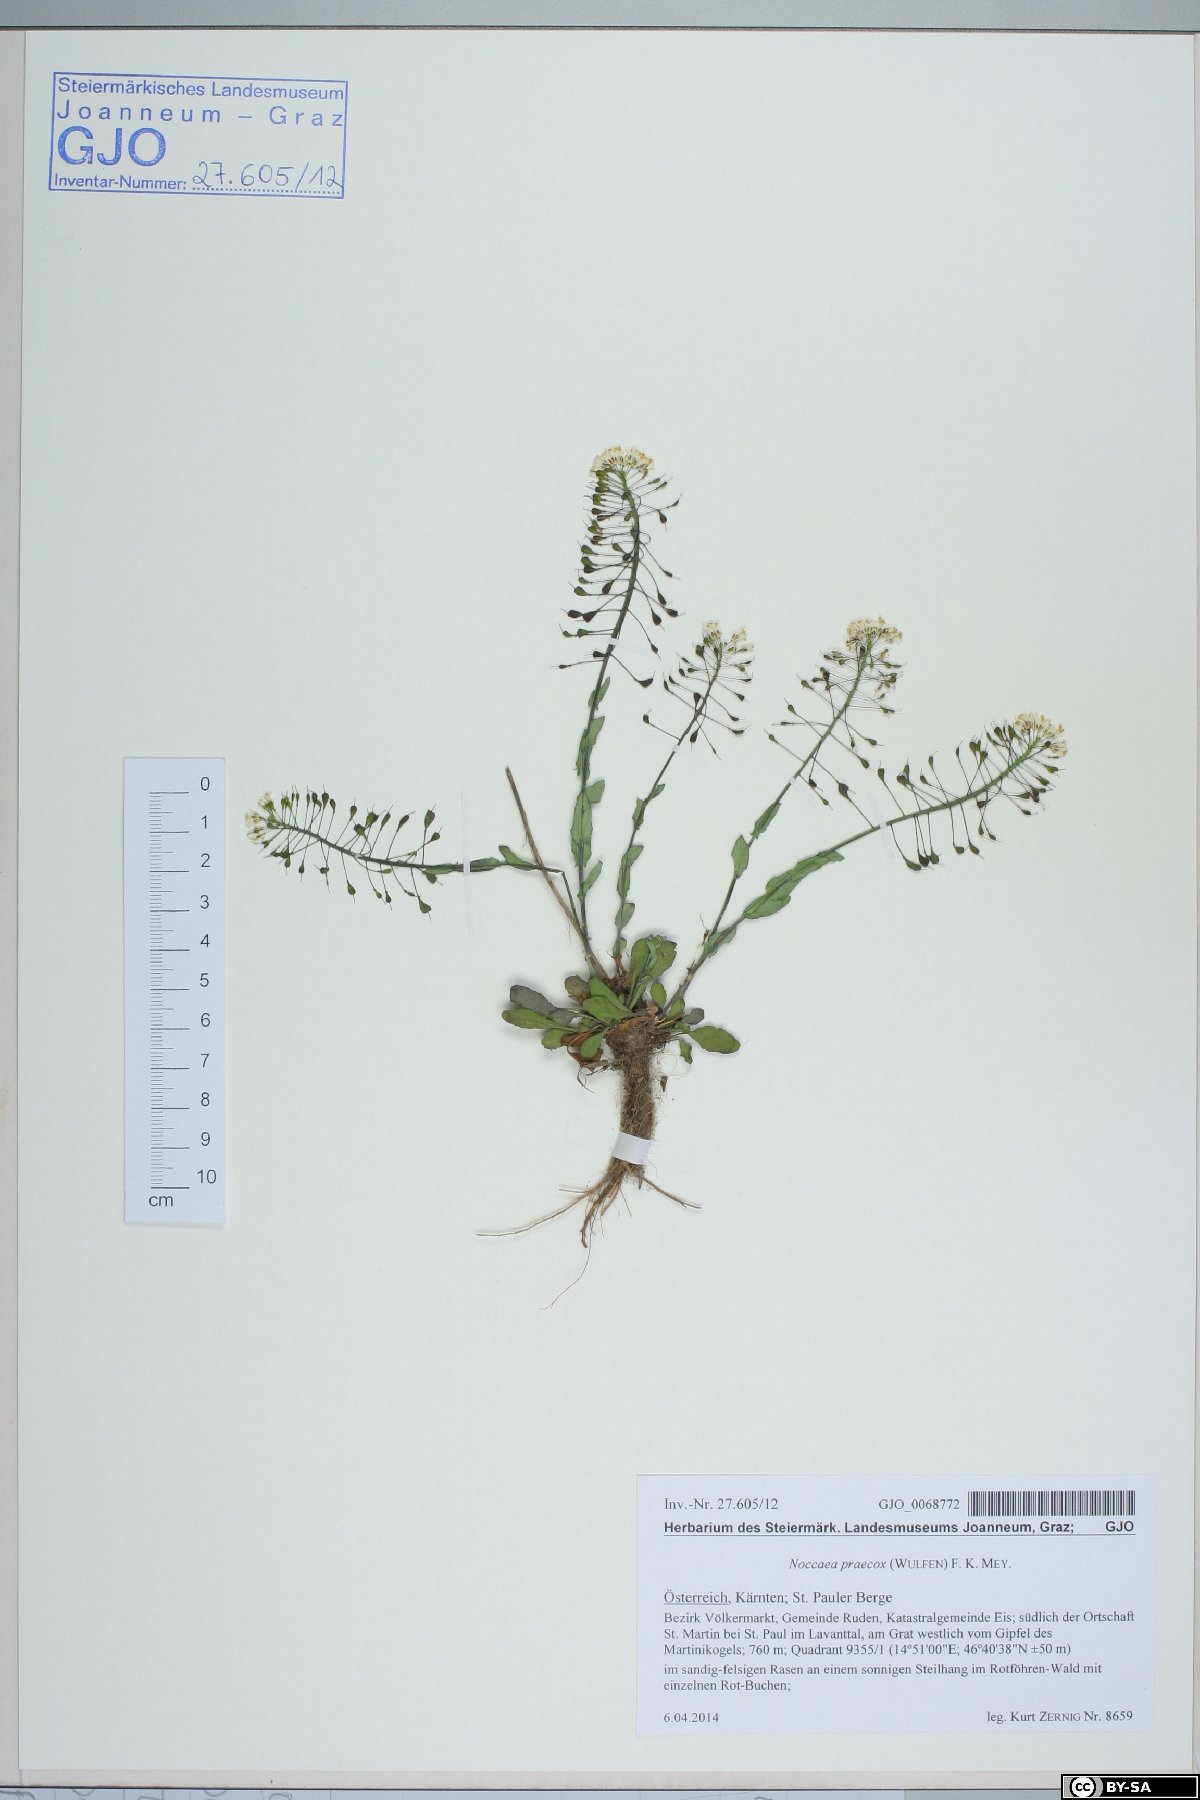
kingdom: Plantae
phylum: Tracheophyta
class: Magnoliopsida
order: Brassicales
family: Brassicaceae
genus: Noccaea
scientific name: Noccaea praecox
